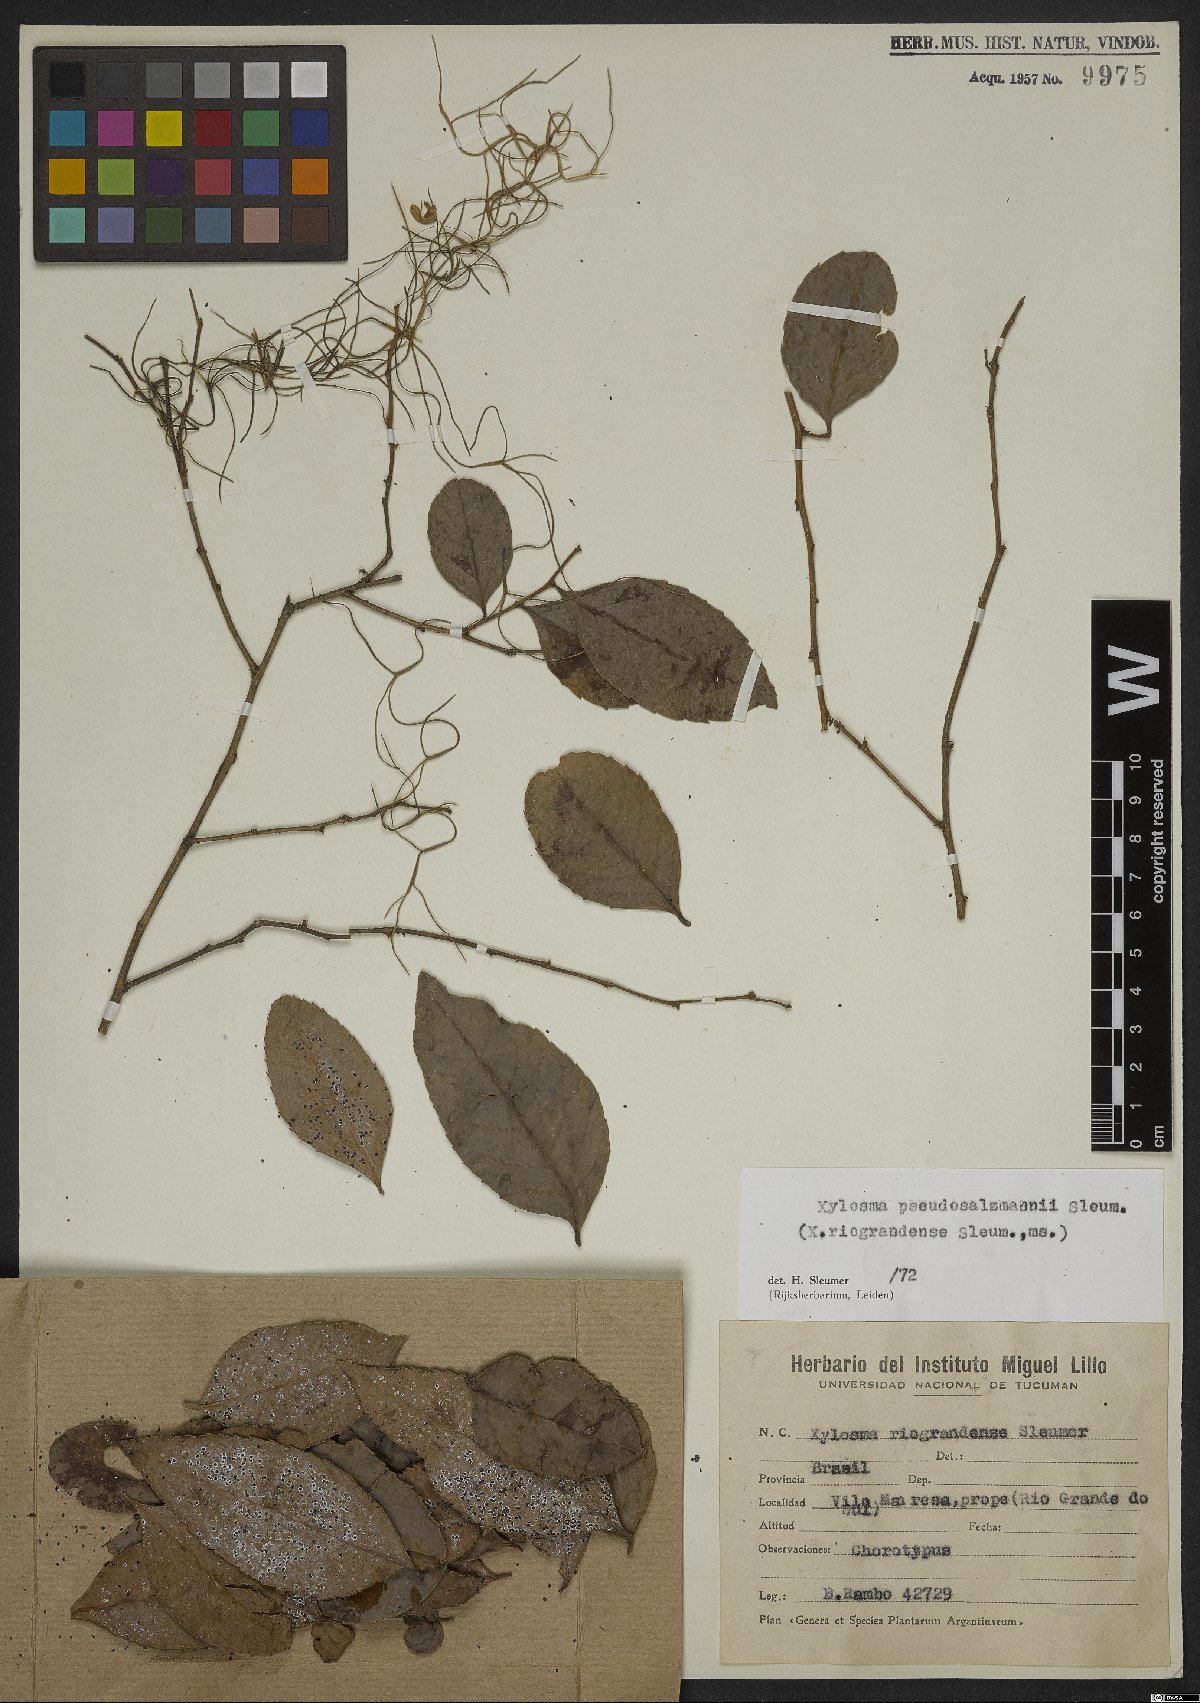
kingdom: Plantae
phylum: Tracheophyta
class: Magnoliopsida
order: Malpighiales
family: Salicaceae
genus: Xylosma
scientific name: Xylosma pseudosalzmannii
